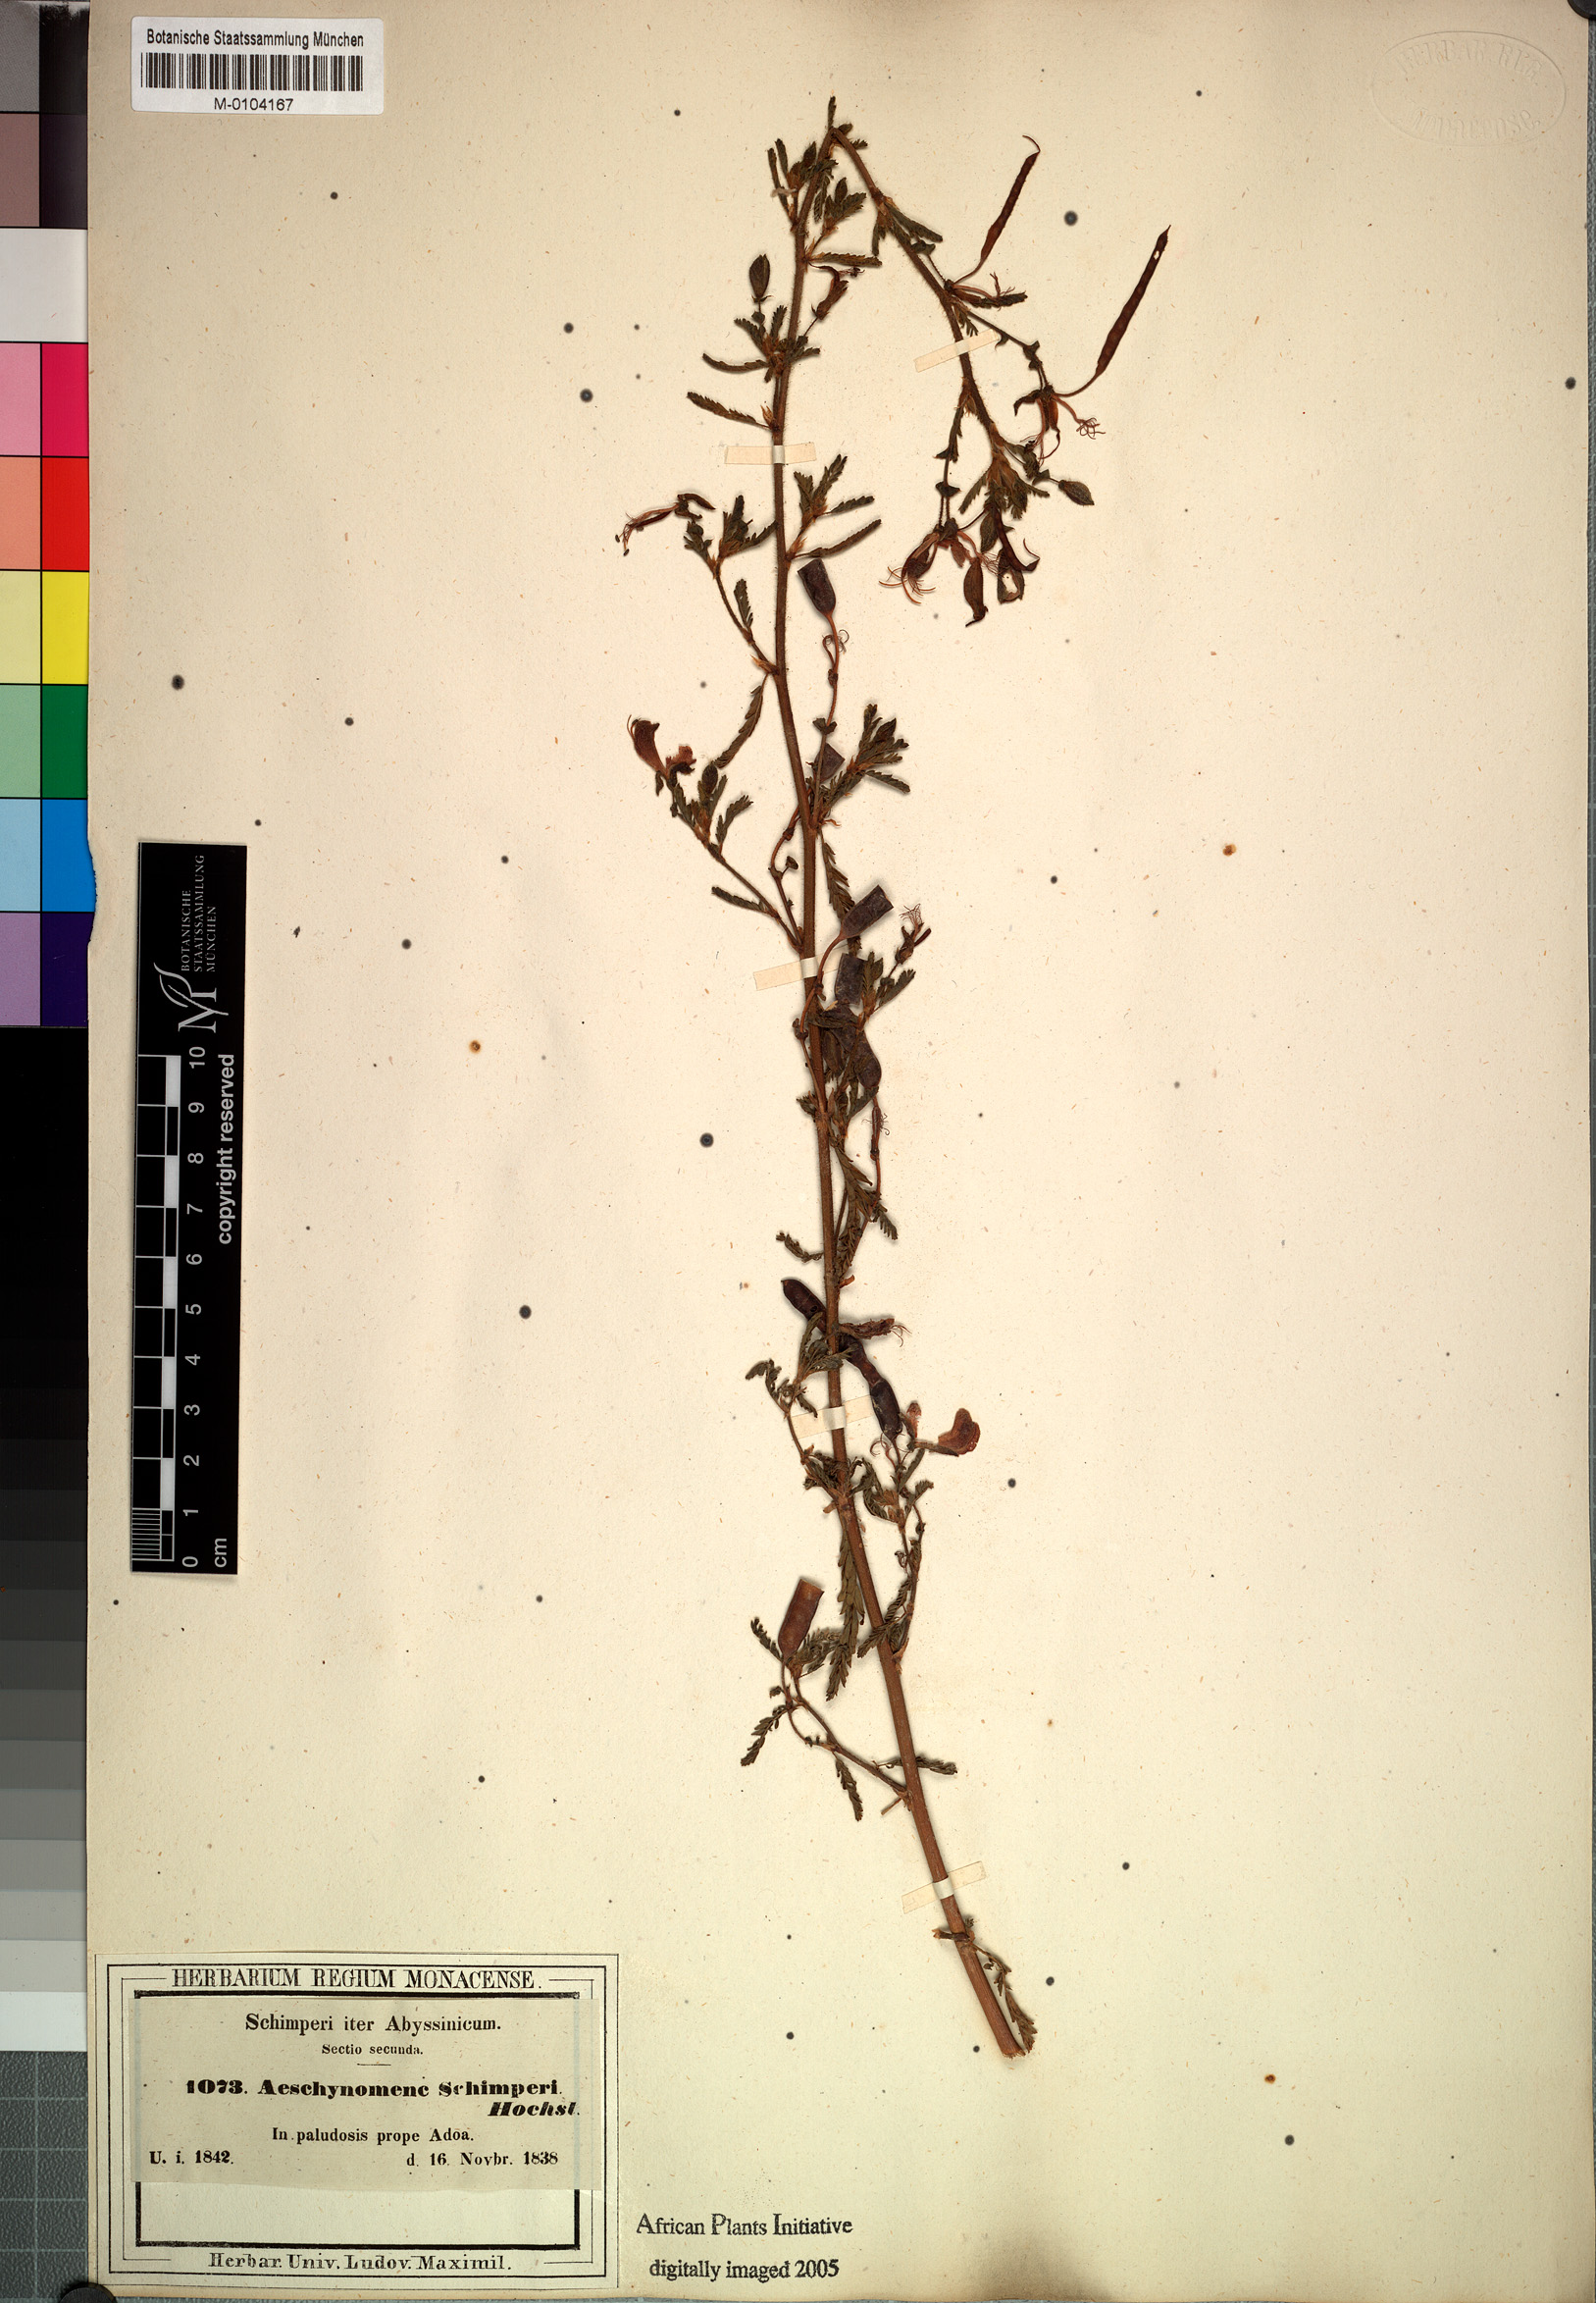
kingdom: Plantae
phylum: Tracheophyta
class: Magnoliopsida
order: Fabales
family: Fabaceae
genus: Aeschynomene
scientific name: Aeschynomene schimperi
